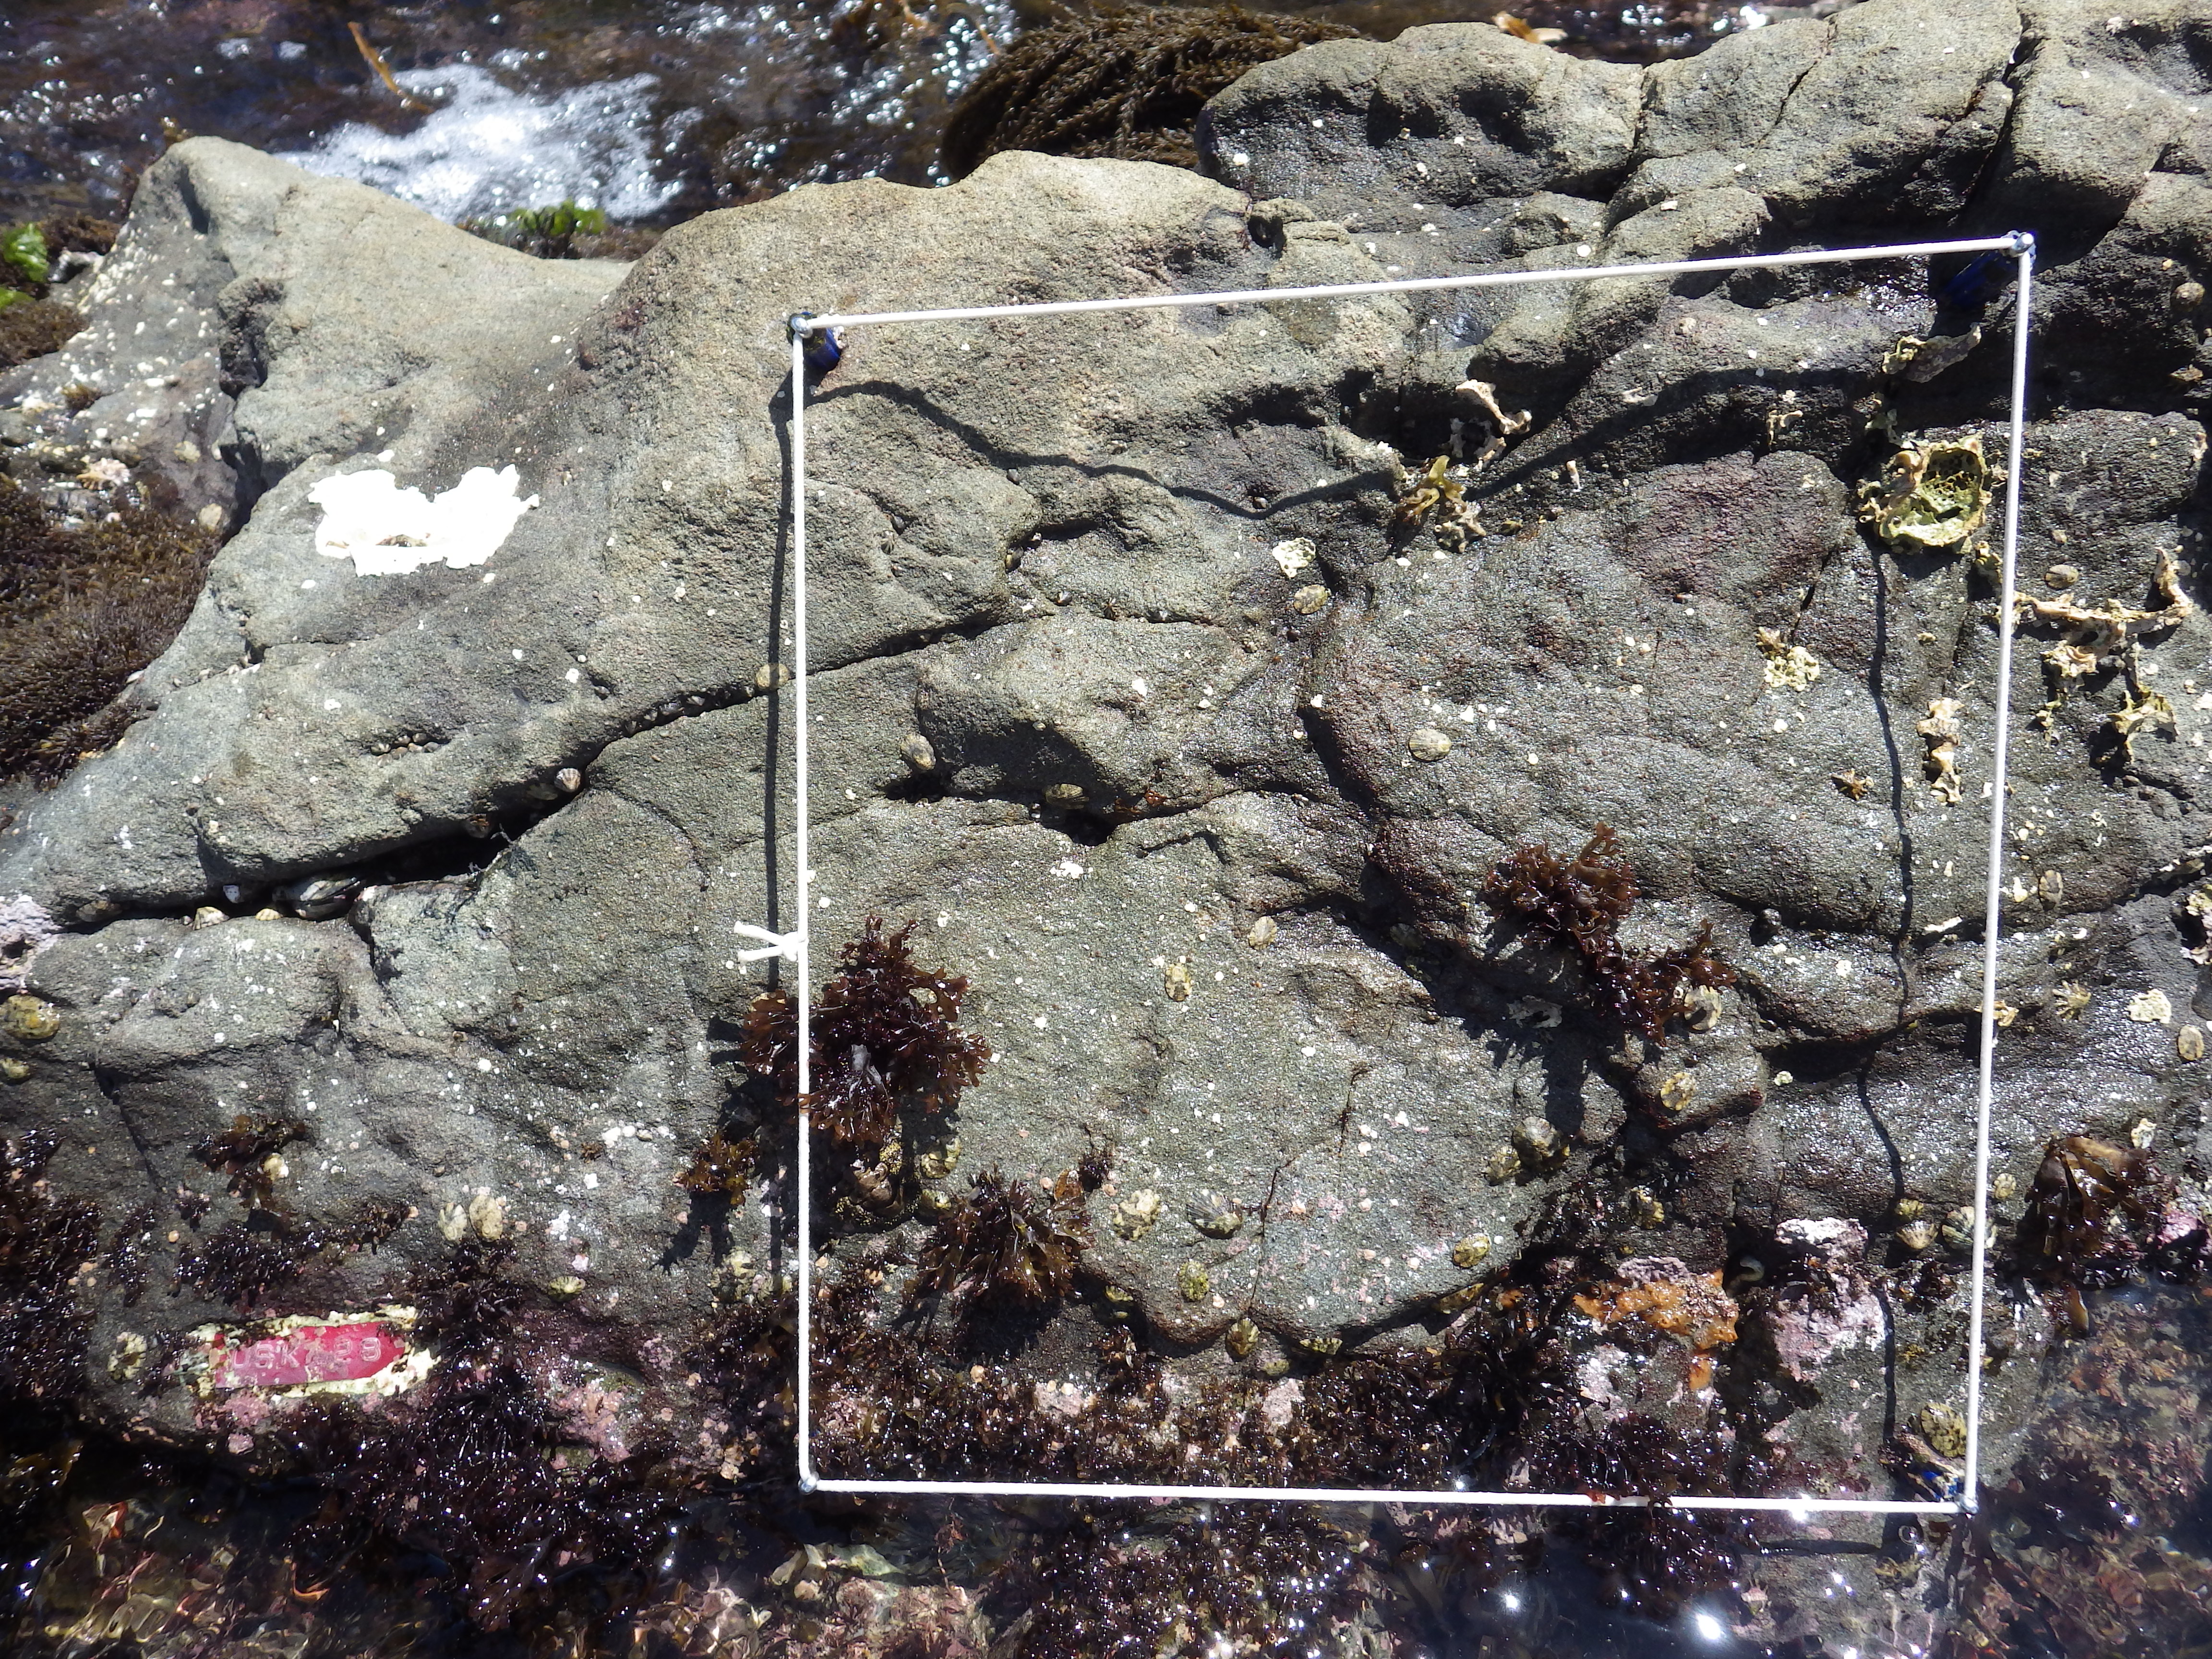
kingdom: Animalia
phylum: Arthropoda
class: Maxillopoda
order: Sessilia
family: Chthamalidae
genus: Chthamalus
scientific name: Chthamalus challengeri
